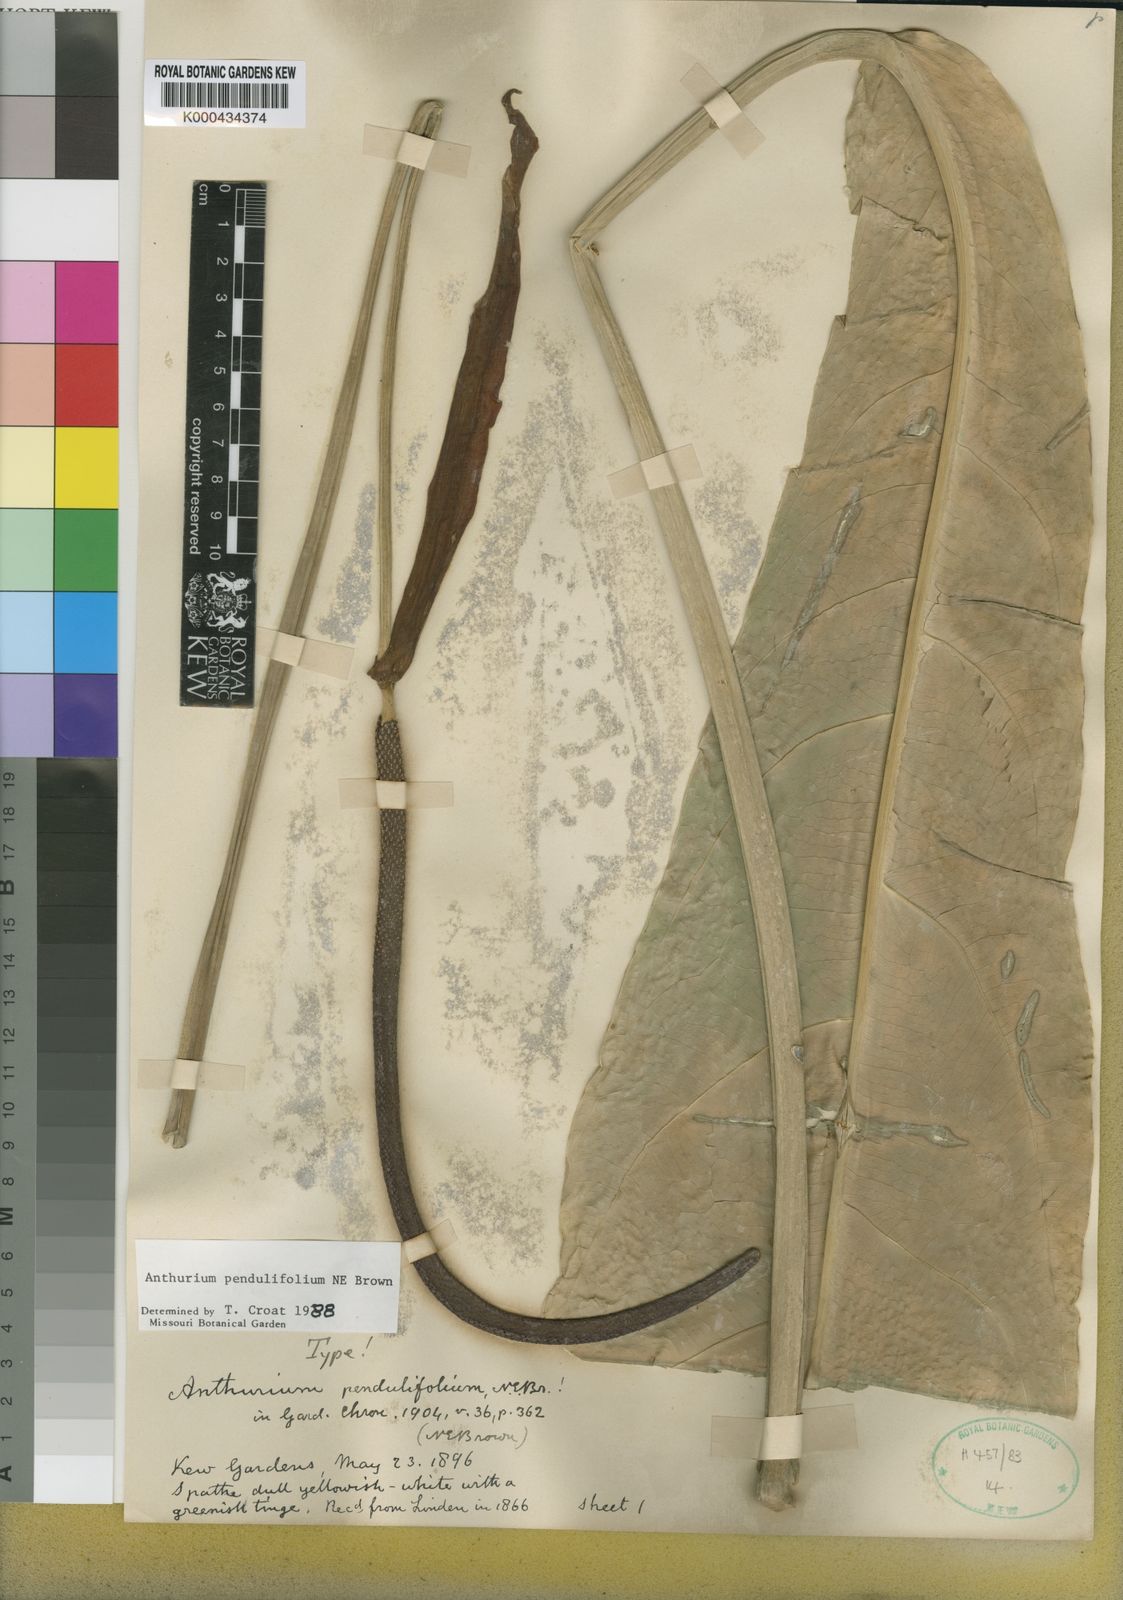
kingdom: Plantae
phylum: Tracheophyta
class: Liliopsida
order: Alismatales
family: Araceae
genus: Anthurium
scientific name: Anthurium pendulifolium
